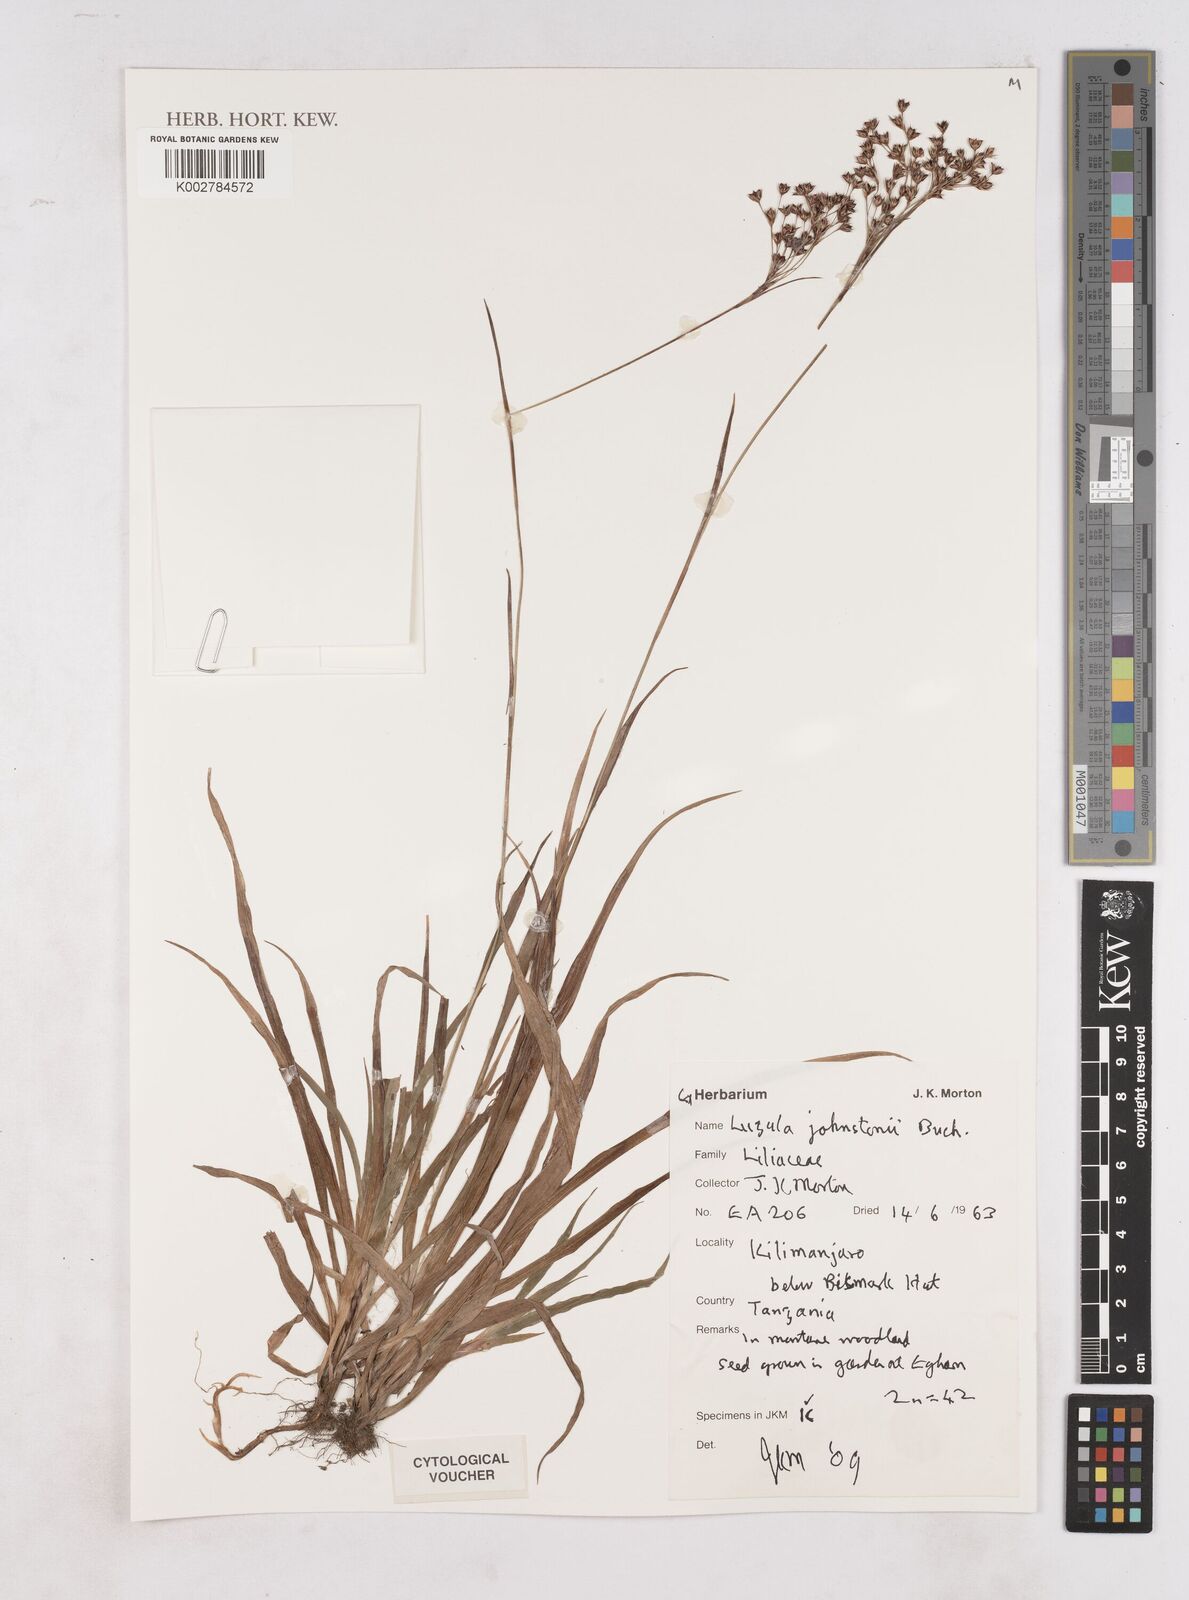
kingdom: Plantae
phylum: Tracheophyta
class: Liliopsida
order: Poales
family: Juncaceae
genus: Luzula
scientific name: Luzula johnstonii
